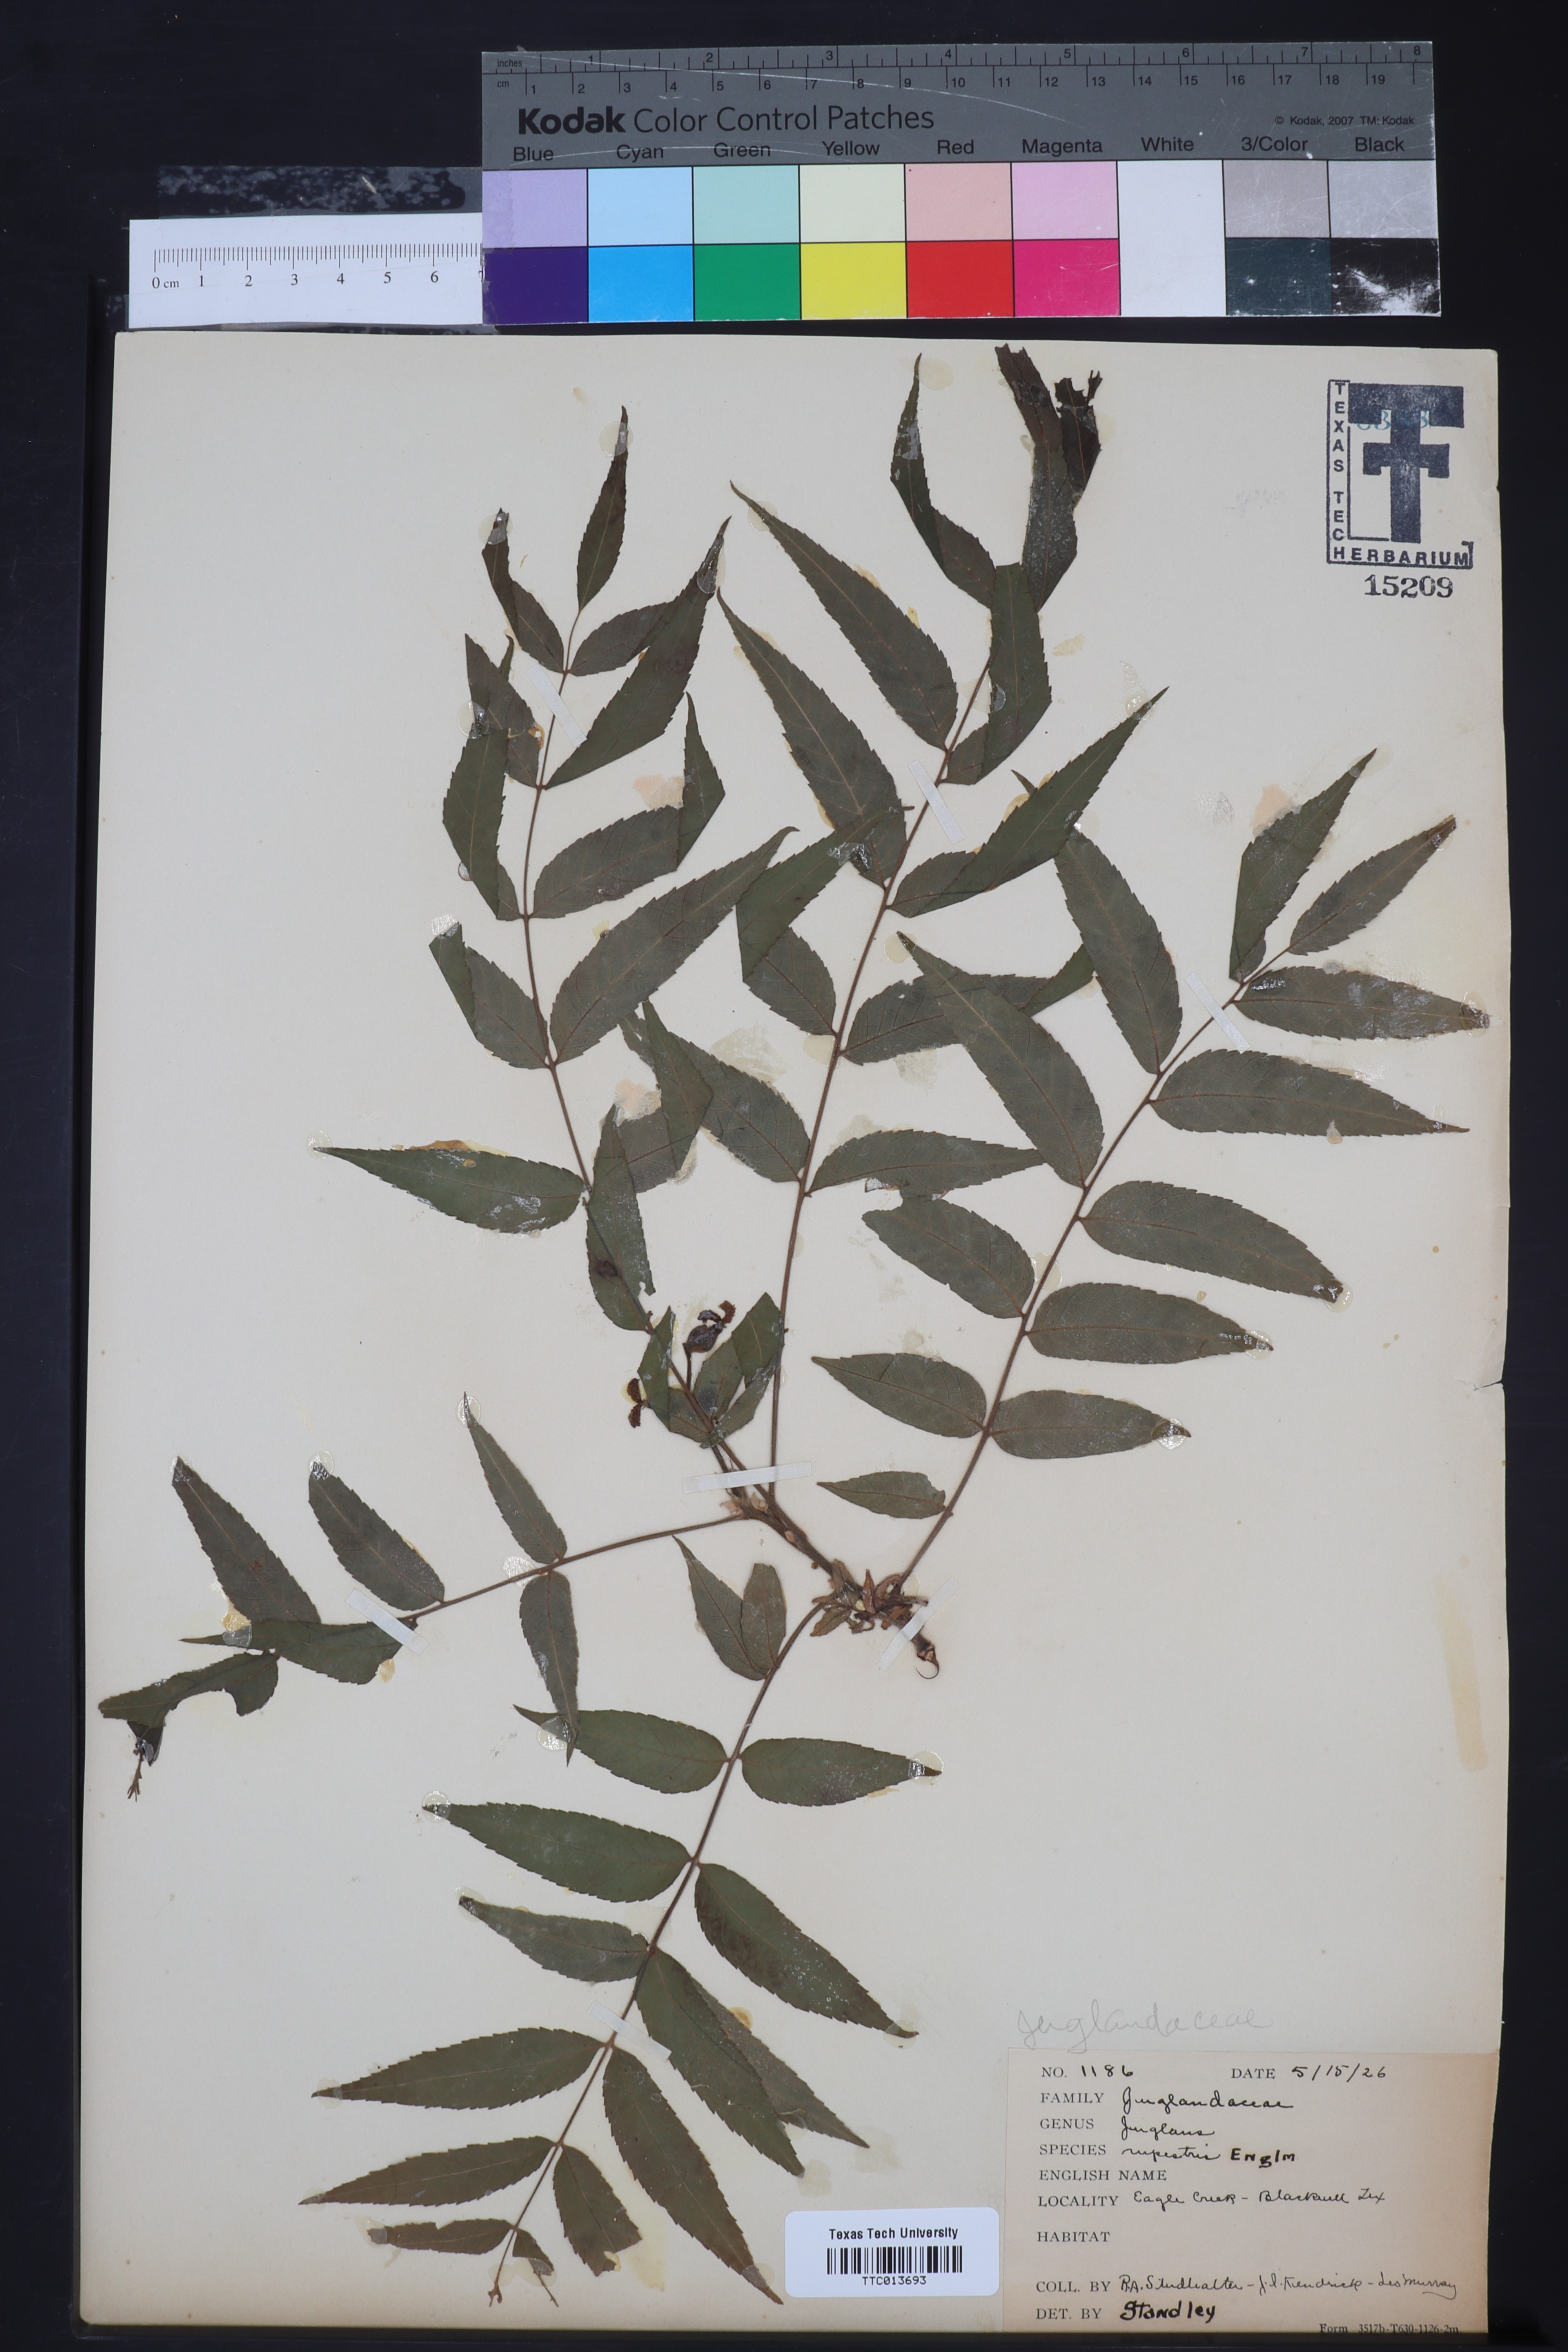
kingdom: Plantae
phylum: Tracheophyta
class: Magnoliopsida
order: Fagales
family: Juglandaceae
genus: Juglans
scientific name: Juglans microcarpa
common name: Texas walnut
